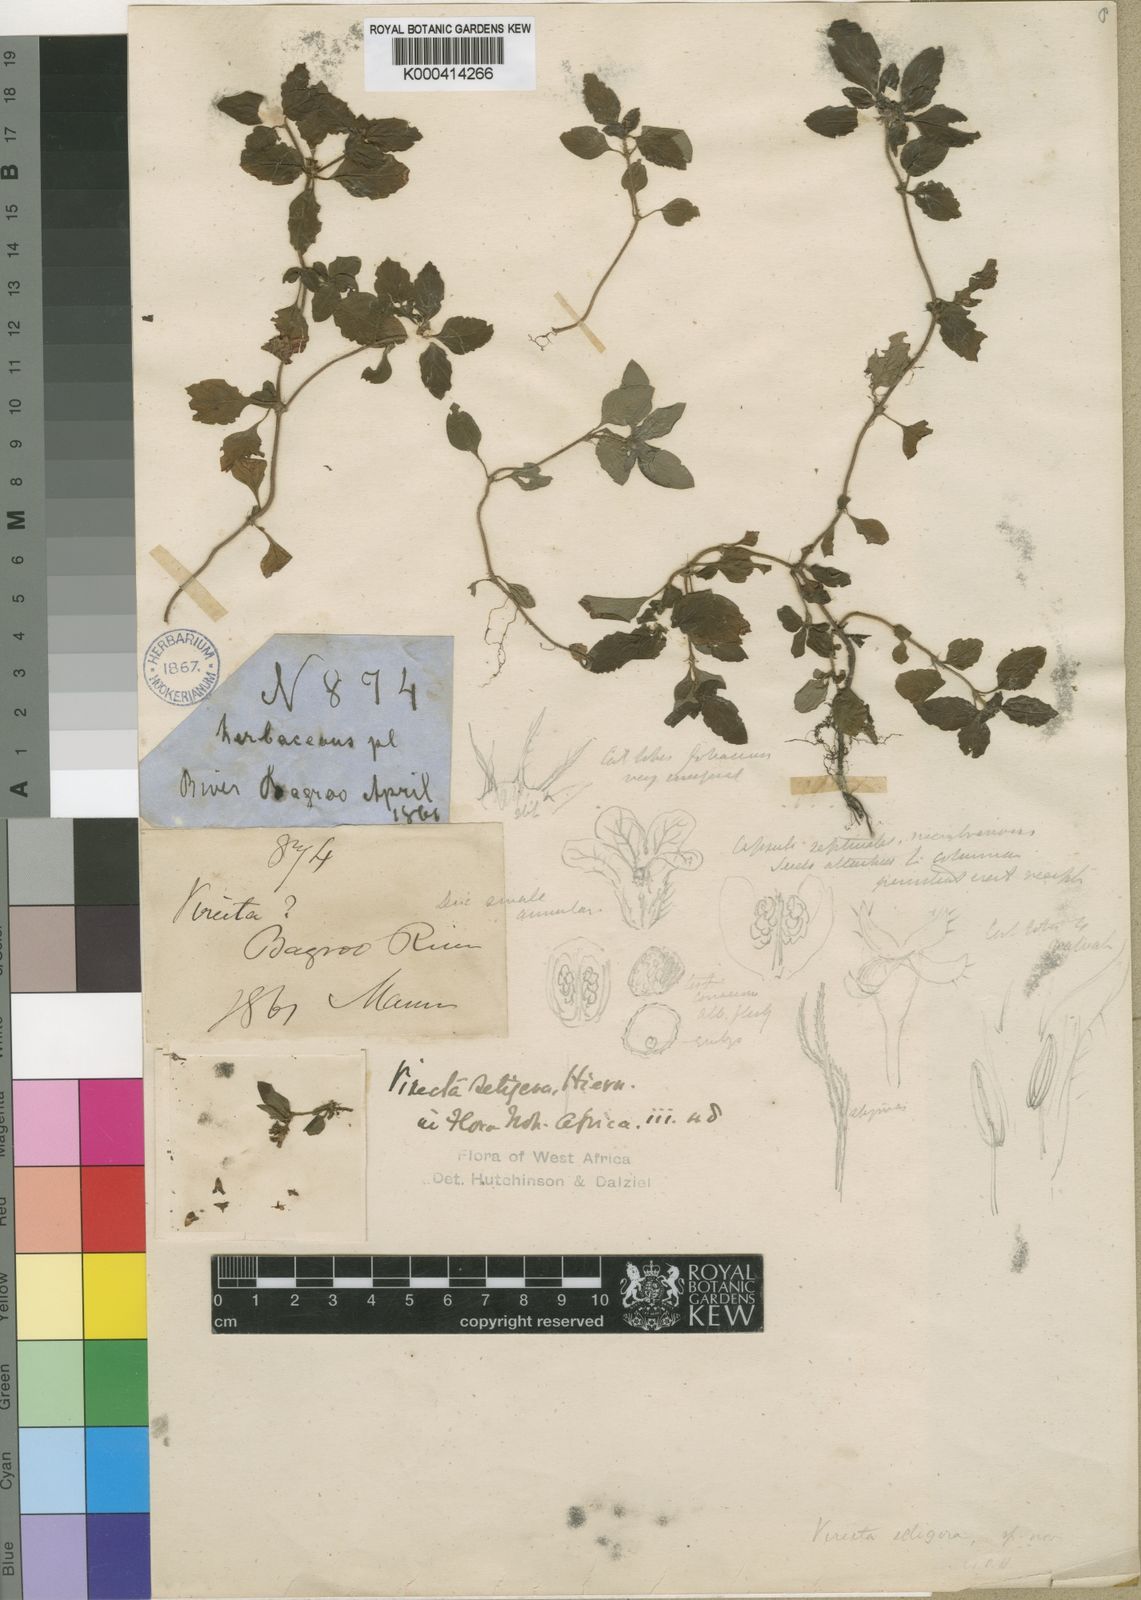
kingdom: Plantae
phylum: Tracheophyta
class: Magnoliopsida
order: Gentianales
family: Rubiaceae
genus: Parapentas
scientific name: Parapentas setigera
